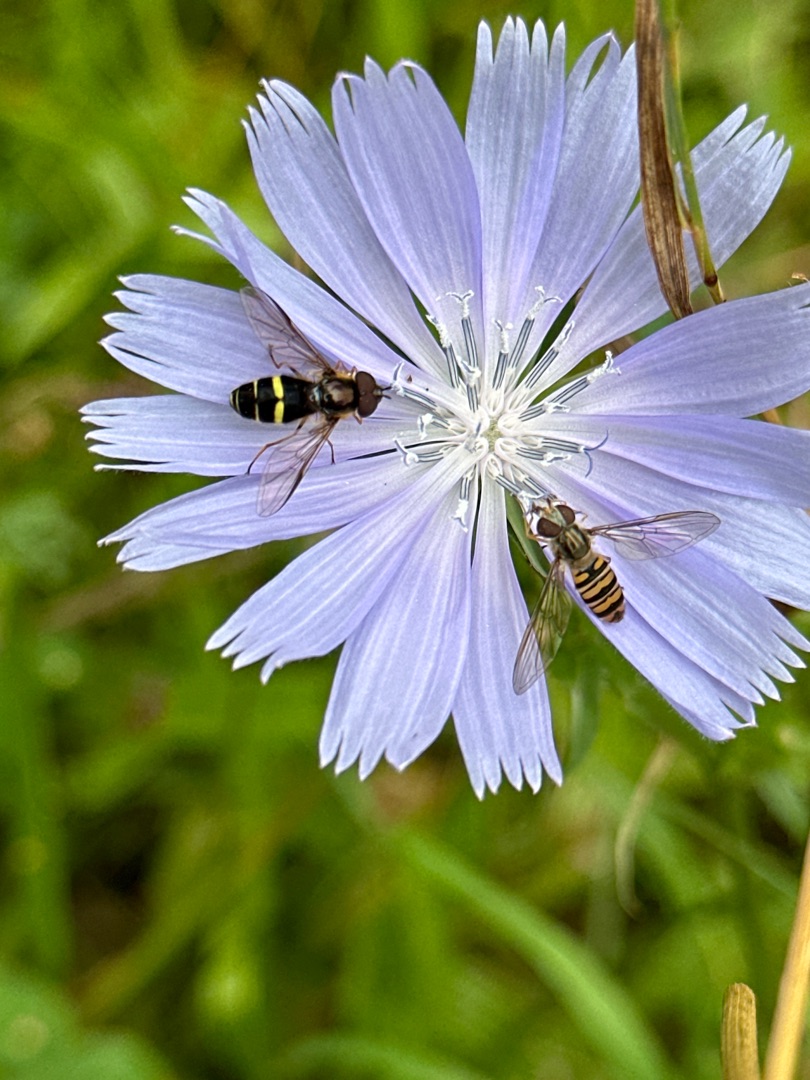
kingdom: Animalia
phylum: Arthropoda
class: Insecta
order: Diptera
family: Syrphidae
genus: Episyrphus
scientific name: Episyrphus balteatus
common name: Dobbeltbåndet svirreflue
